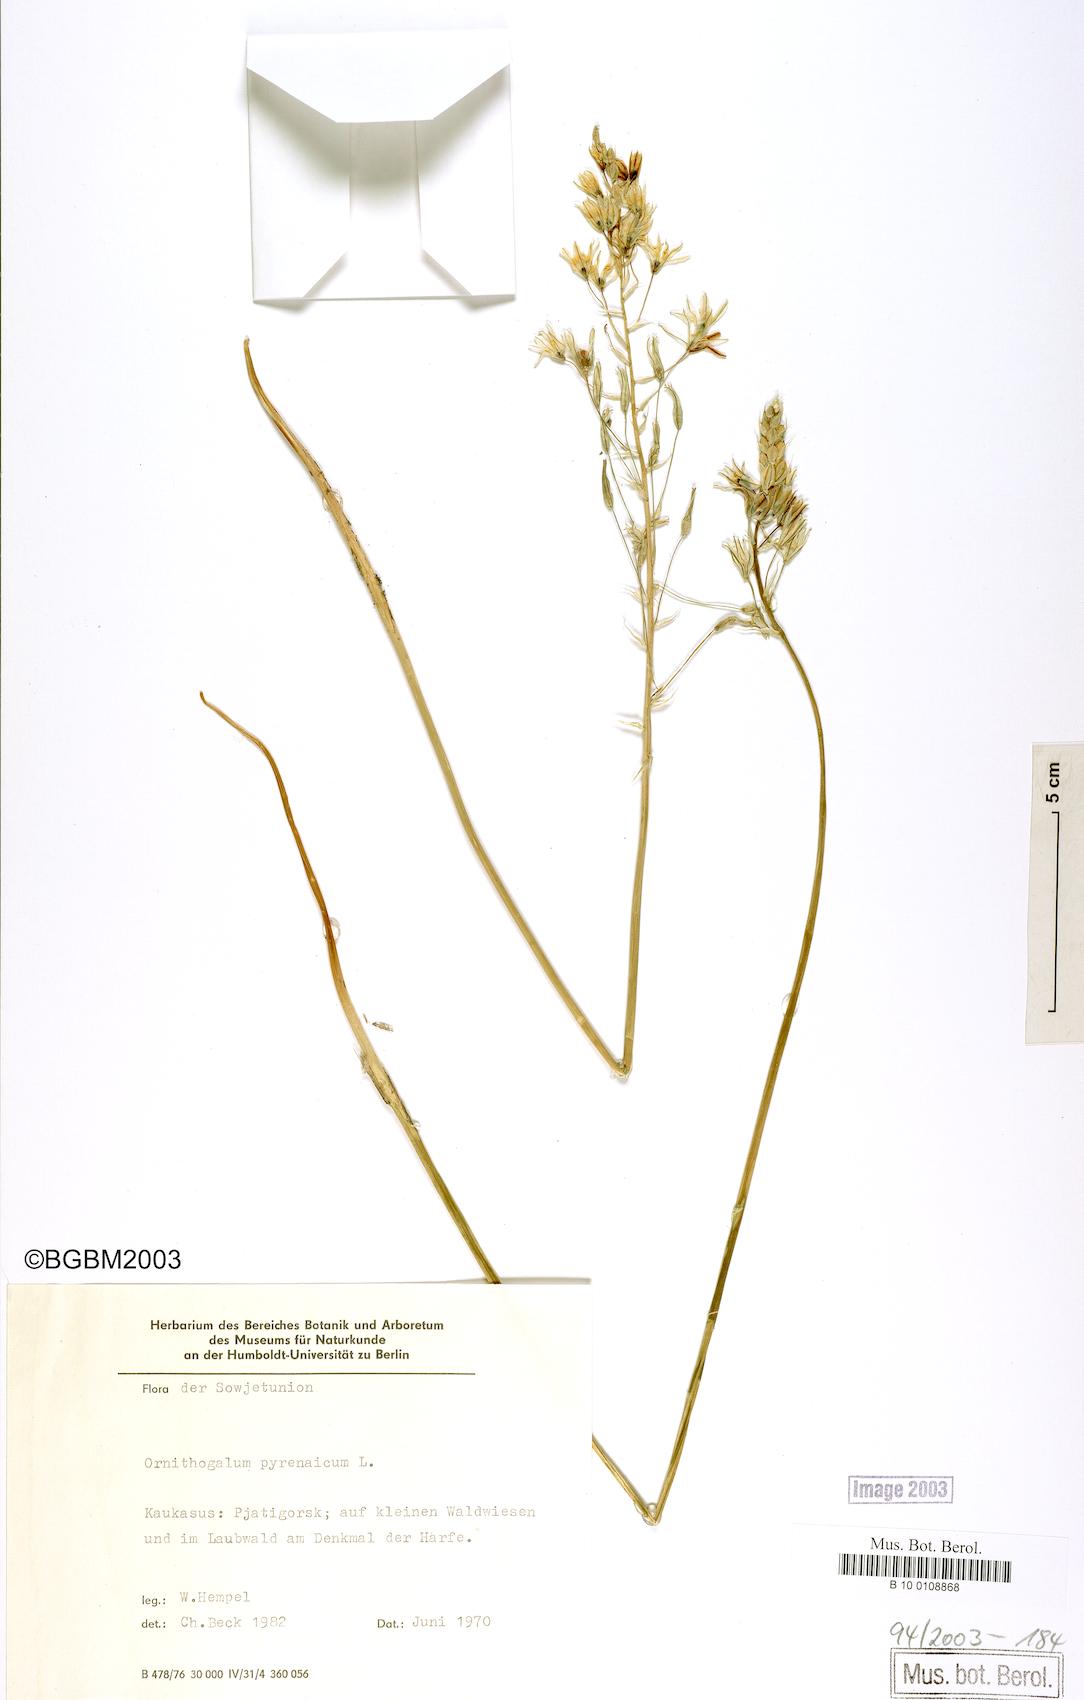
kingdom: Plantae
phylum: Tracheophyta
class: Liliopsida
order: Asparagales
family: Asparagaceae
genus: Ornithogalum
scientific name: Ornithogalum pyrenaicum
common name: Spiked star-of-bethlehem
